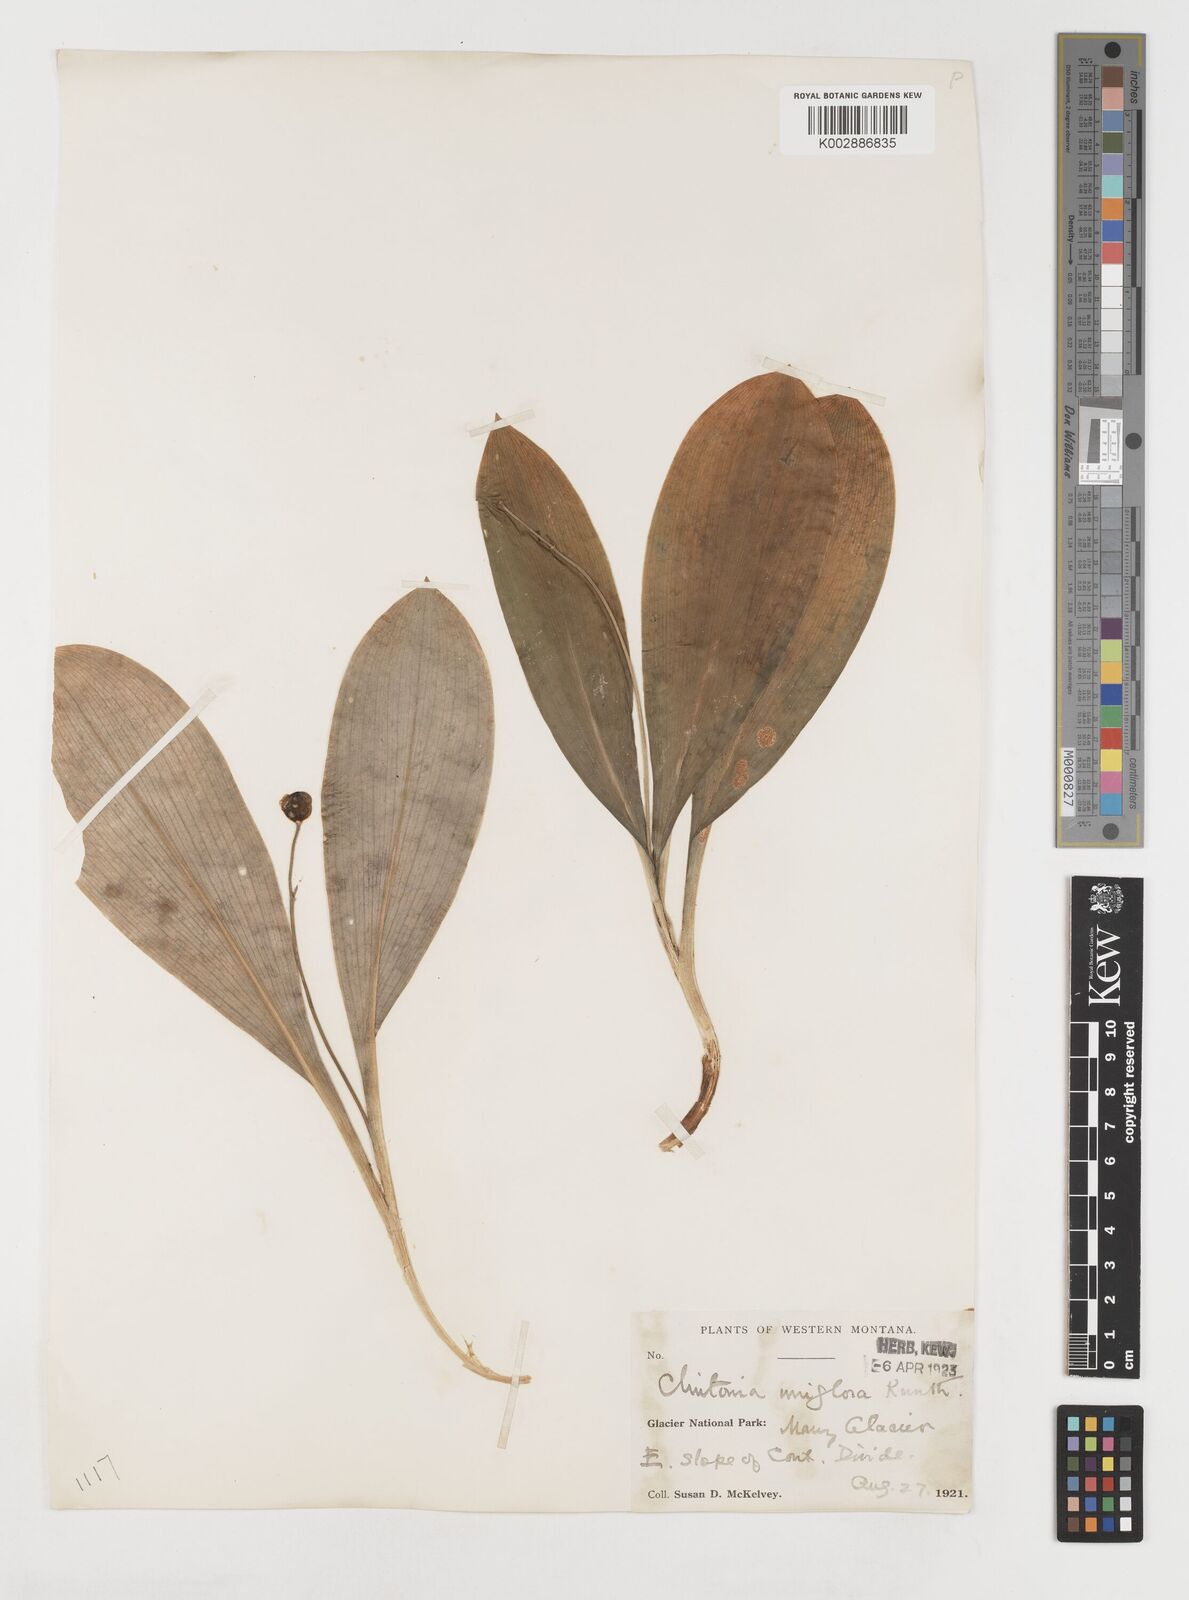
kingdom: Plantae
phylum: Tracheophyta
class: Liliopsida
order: Liliales
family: Liliaceae
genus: Clintonia
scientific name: Clintonia uniflora
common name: Queen's cup
